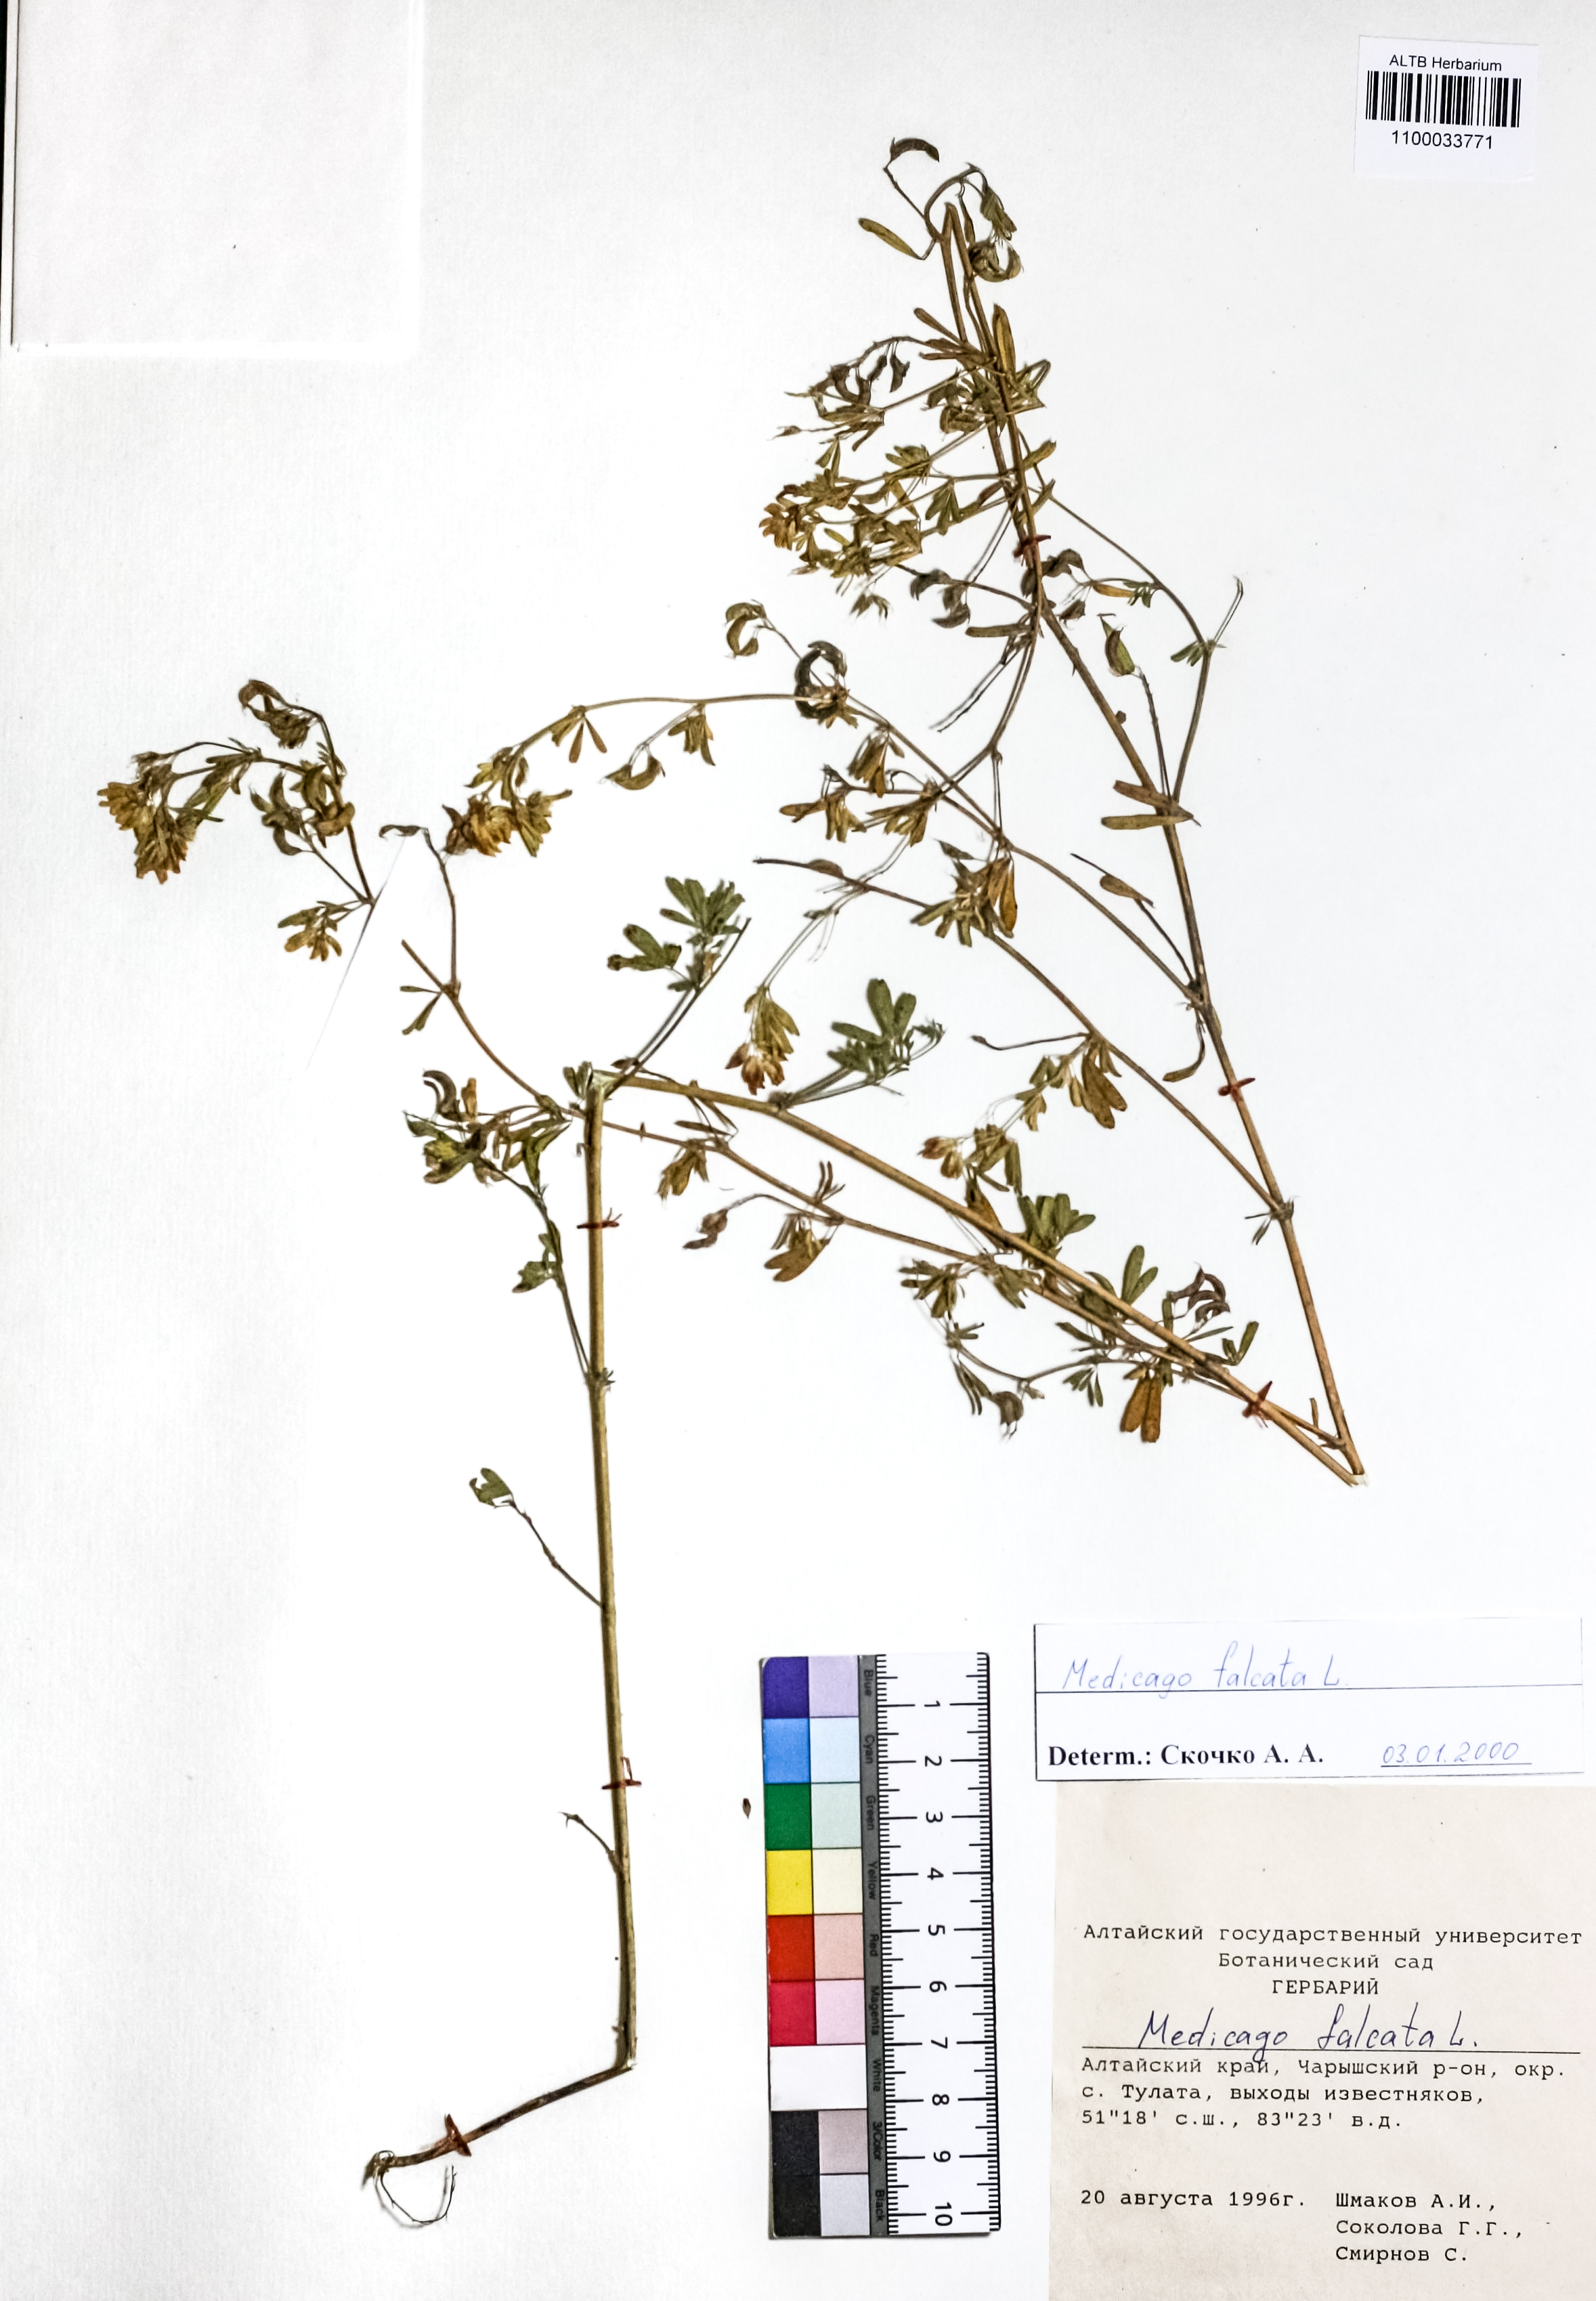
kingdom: Plantae
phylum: Tracheophyta
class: Magnoliopsida
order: Fabales
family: Fabaceae
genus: Medicago
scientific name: Medicago falcata
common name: Sickle medick
